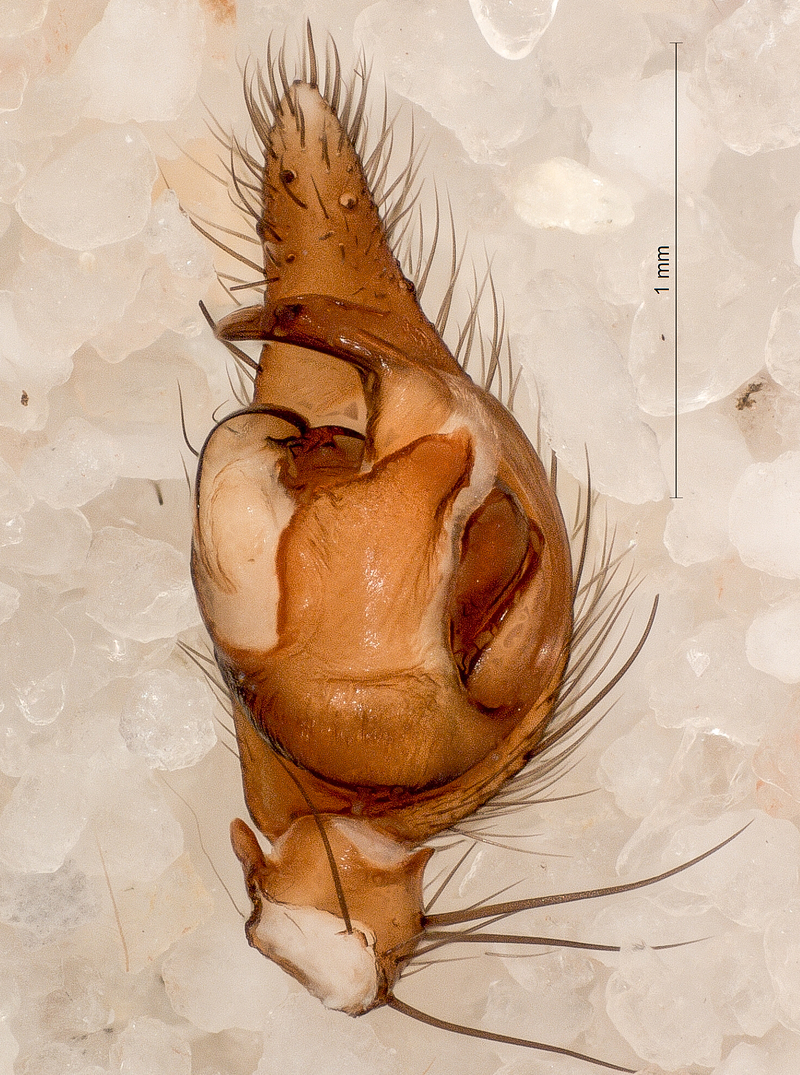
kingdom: Animalia
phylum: Arthropoda
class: Arachnida
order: Araneae
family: Agelenidae
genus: Inermocoelotes
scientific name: Inermocoelotes inermis
